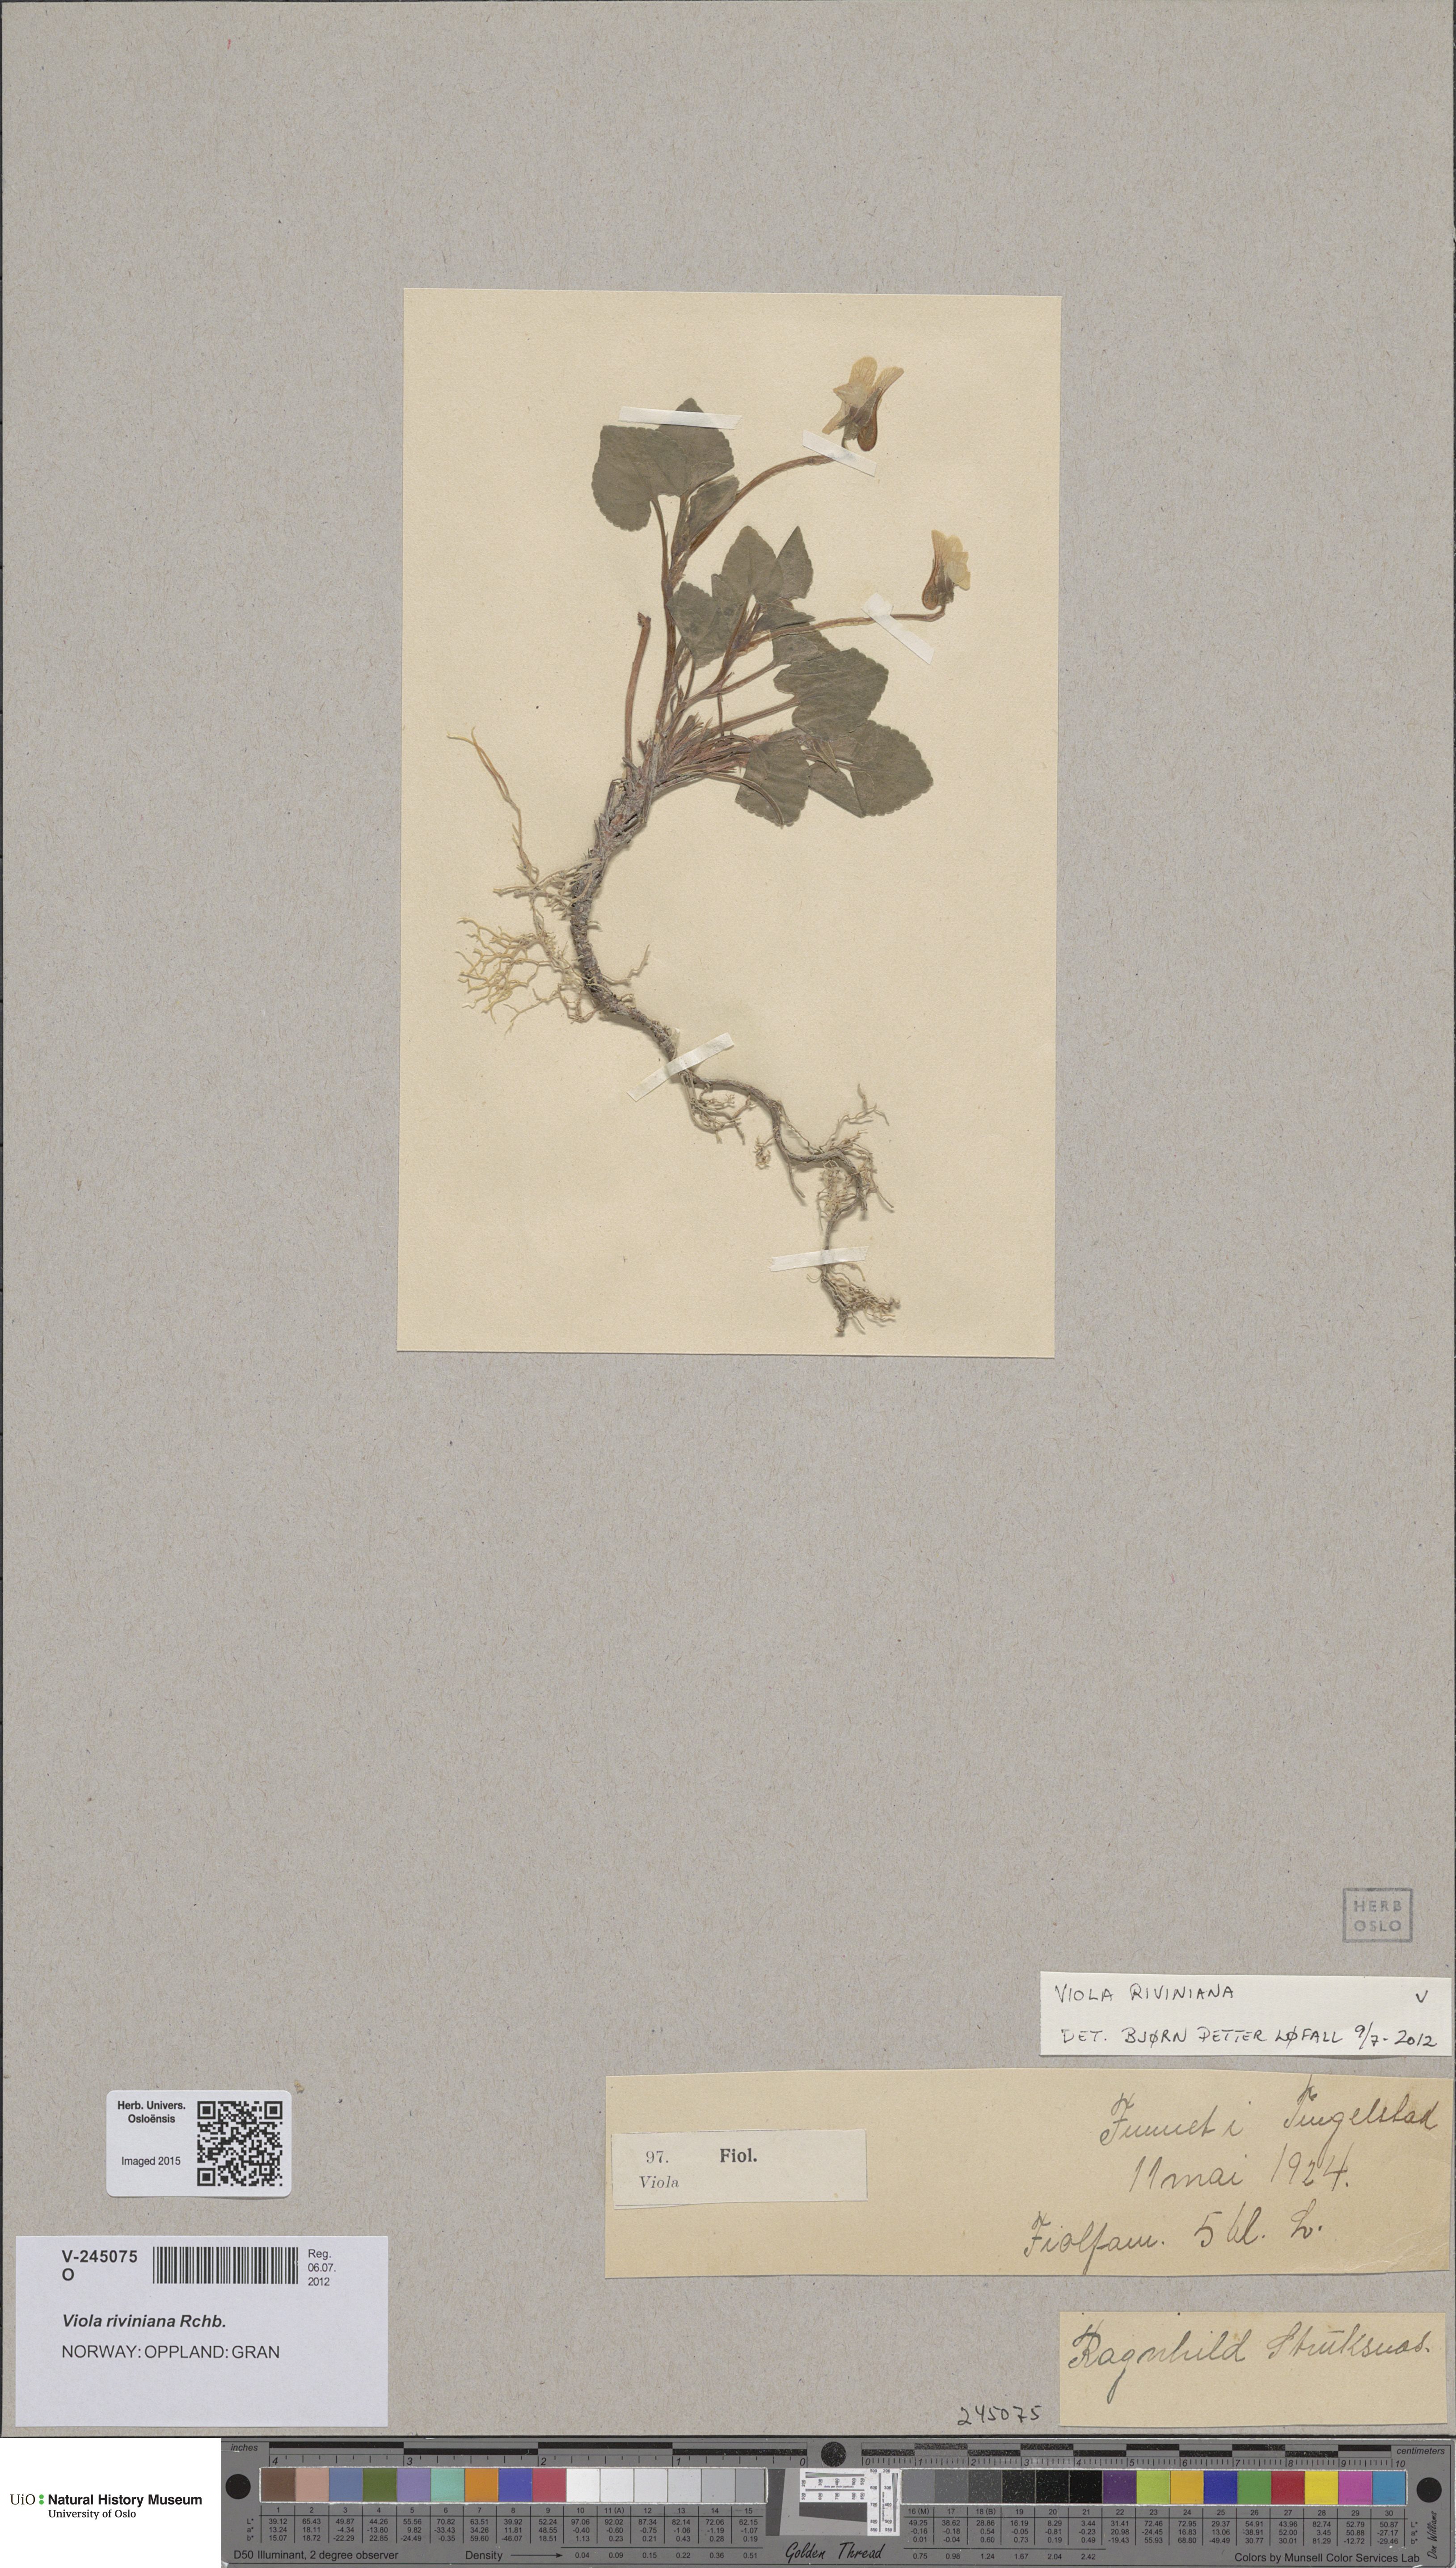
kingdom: Plantae
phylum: Tracheophyta
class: Magnoliopsida
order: Malpighiales
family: Violaceae
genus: Viola
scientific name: Viola riviniana
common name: Common dog-violet
